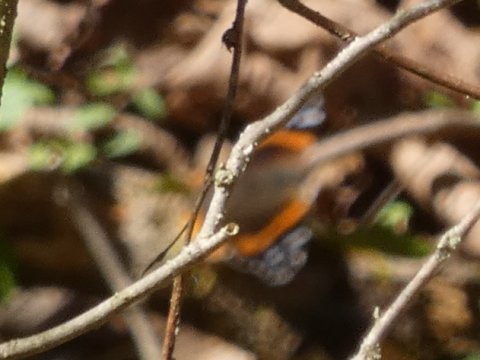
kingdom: Animalia
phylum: Arthropoda
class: Insecta
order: Lepidoptera
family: Nymphalidae
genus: Vanessa
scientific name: Vanessa atalanta
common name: Red Admiral
